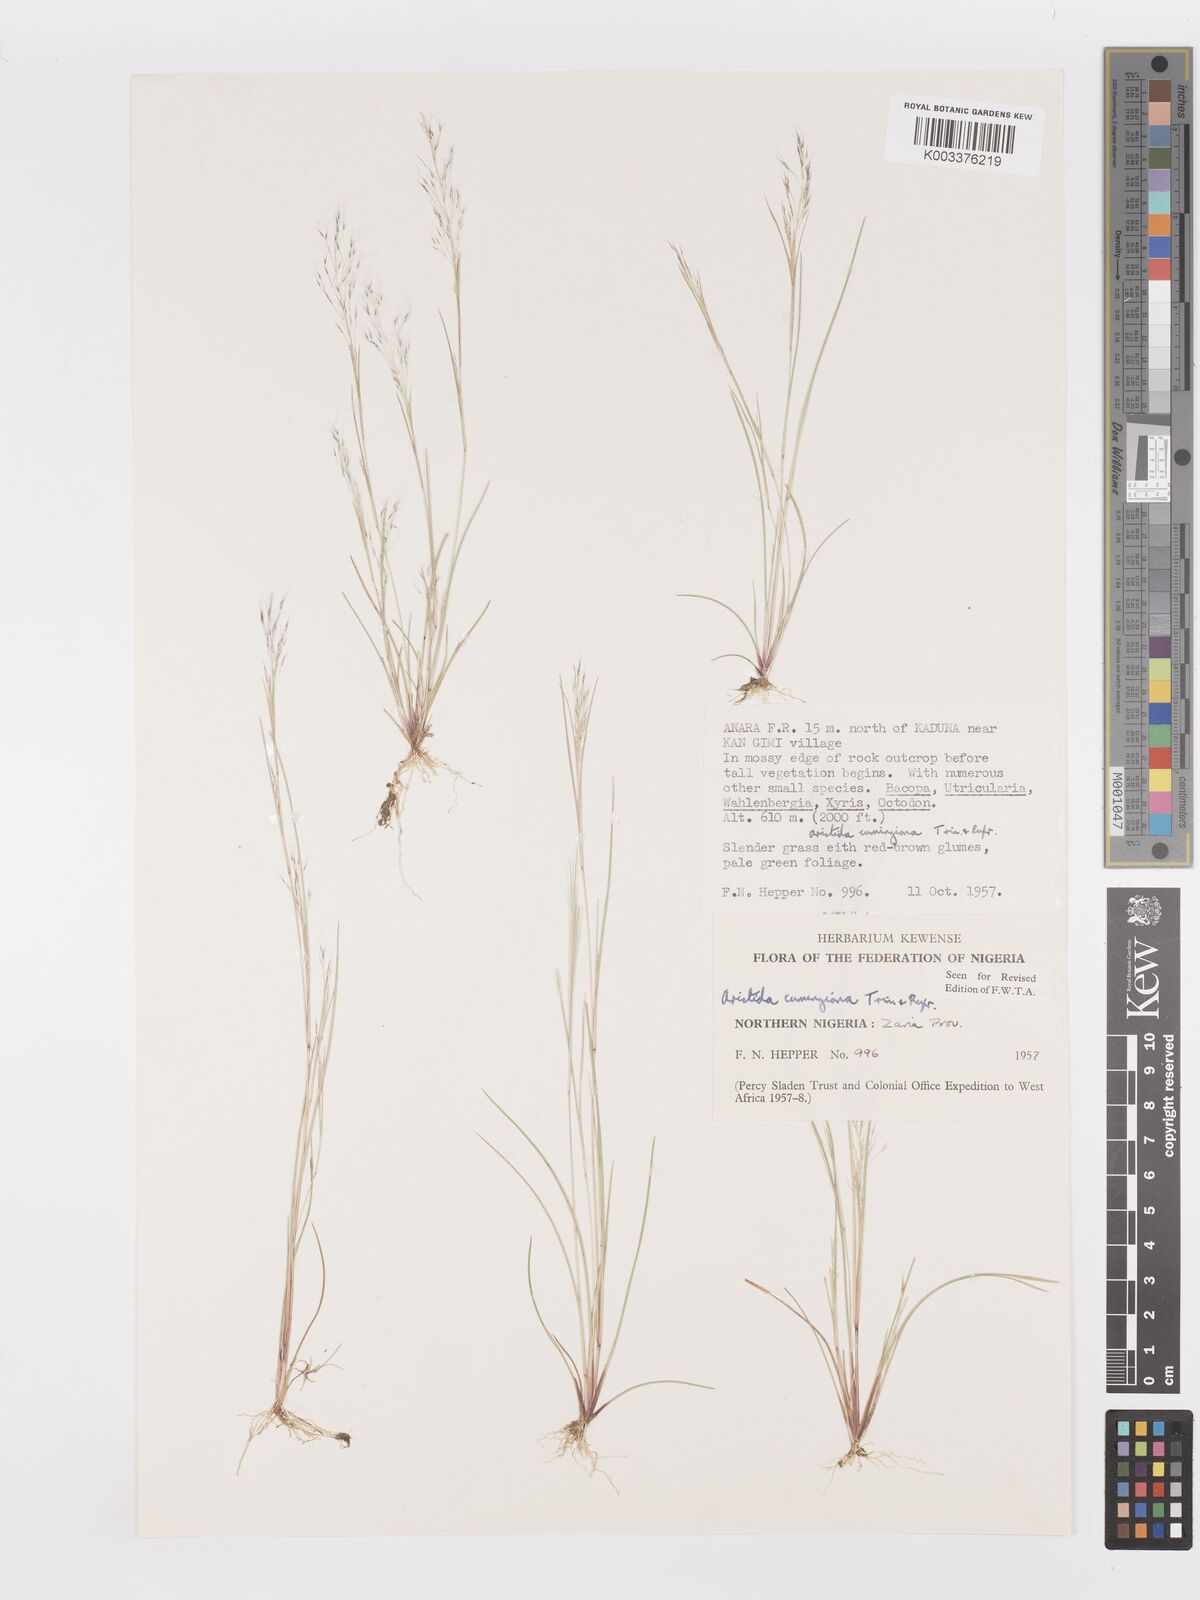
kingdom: Plantae
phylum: Tracheophyta
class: Liliopsida
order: Poales
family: Poaceae
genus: Aristida
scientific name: Aristida cumingiana
